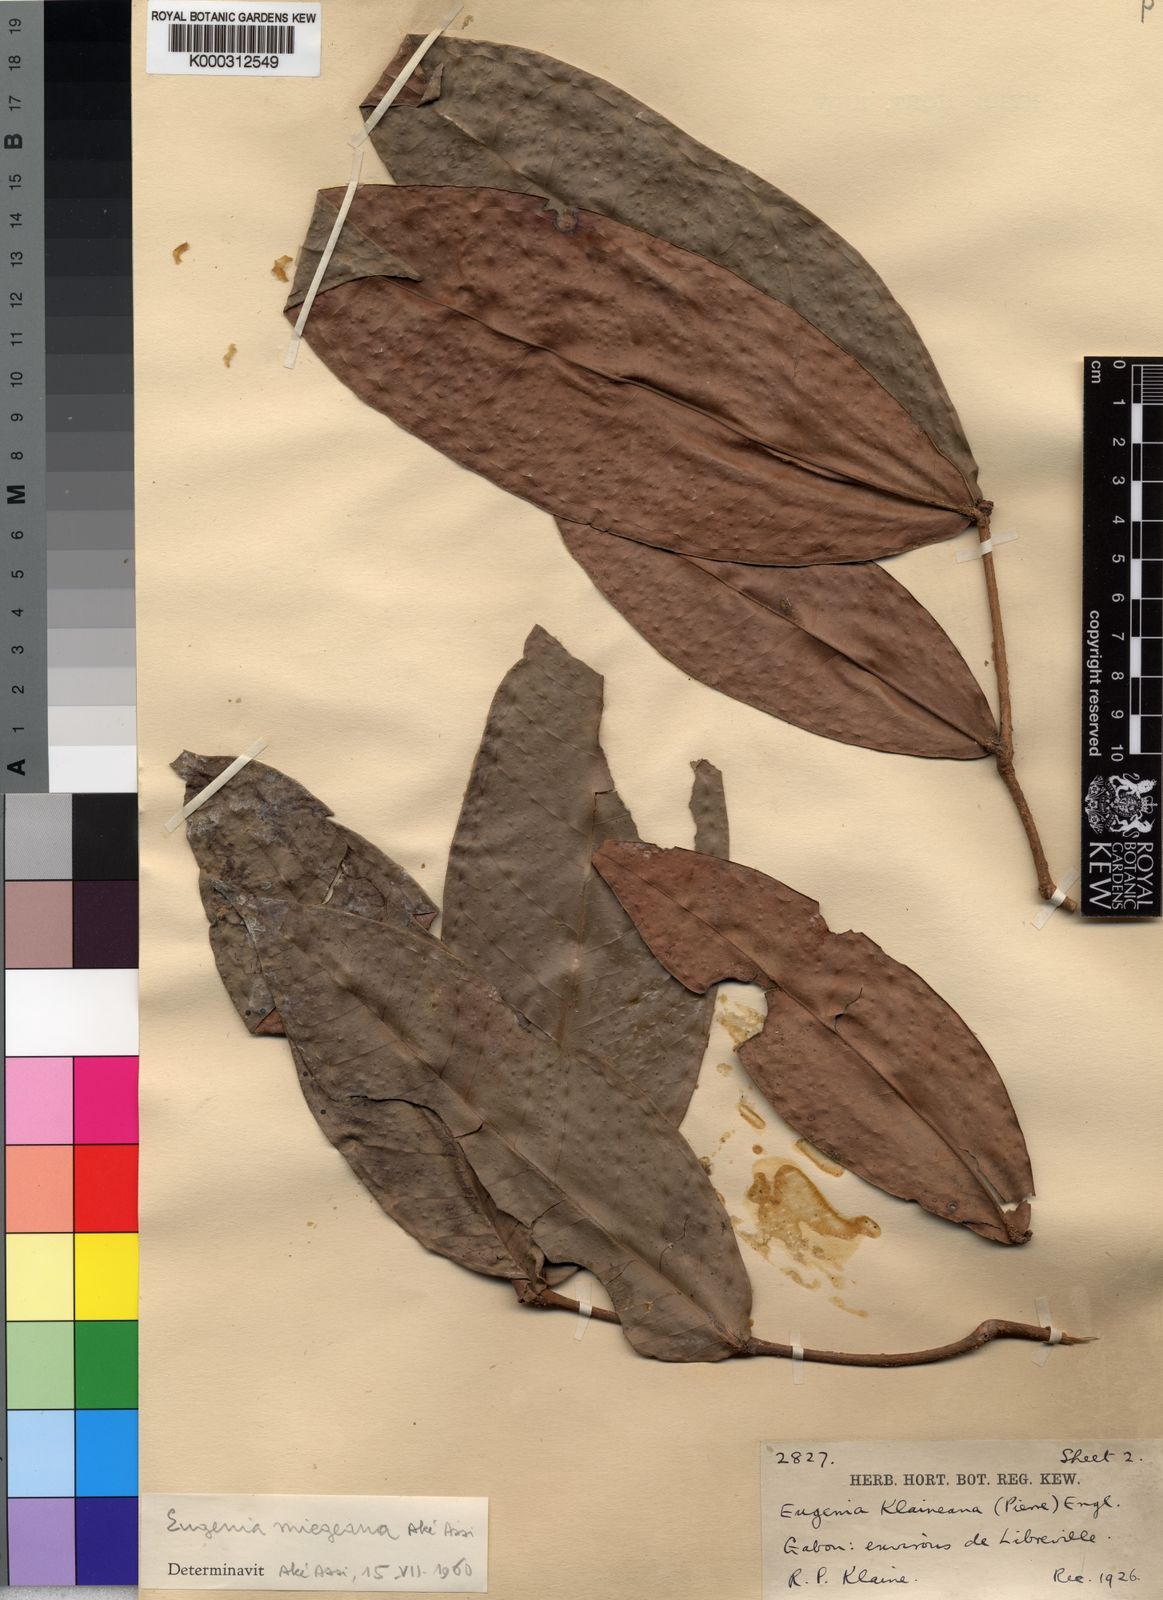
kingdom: Plantae
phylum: Tracheophyta
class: Magnoliopsida
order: Myrtales
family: Myrtaceae
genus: Eugenia
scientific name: Eugenia gabonensis
